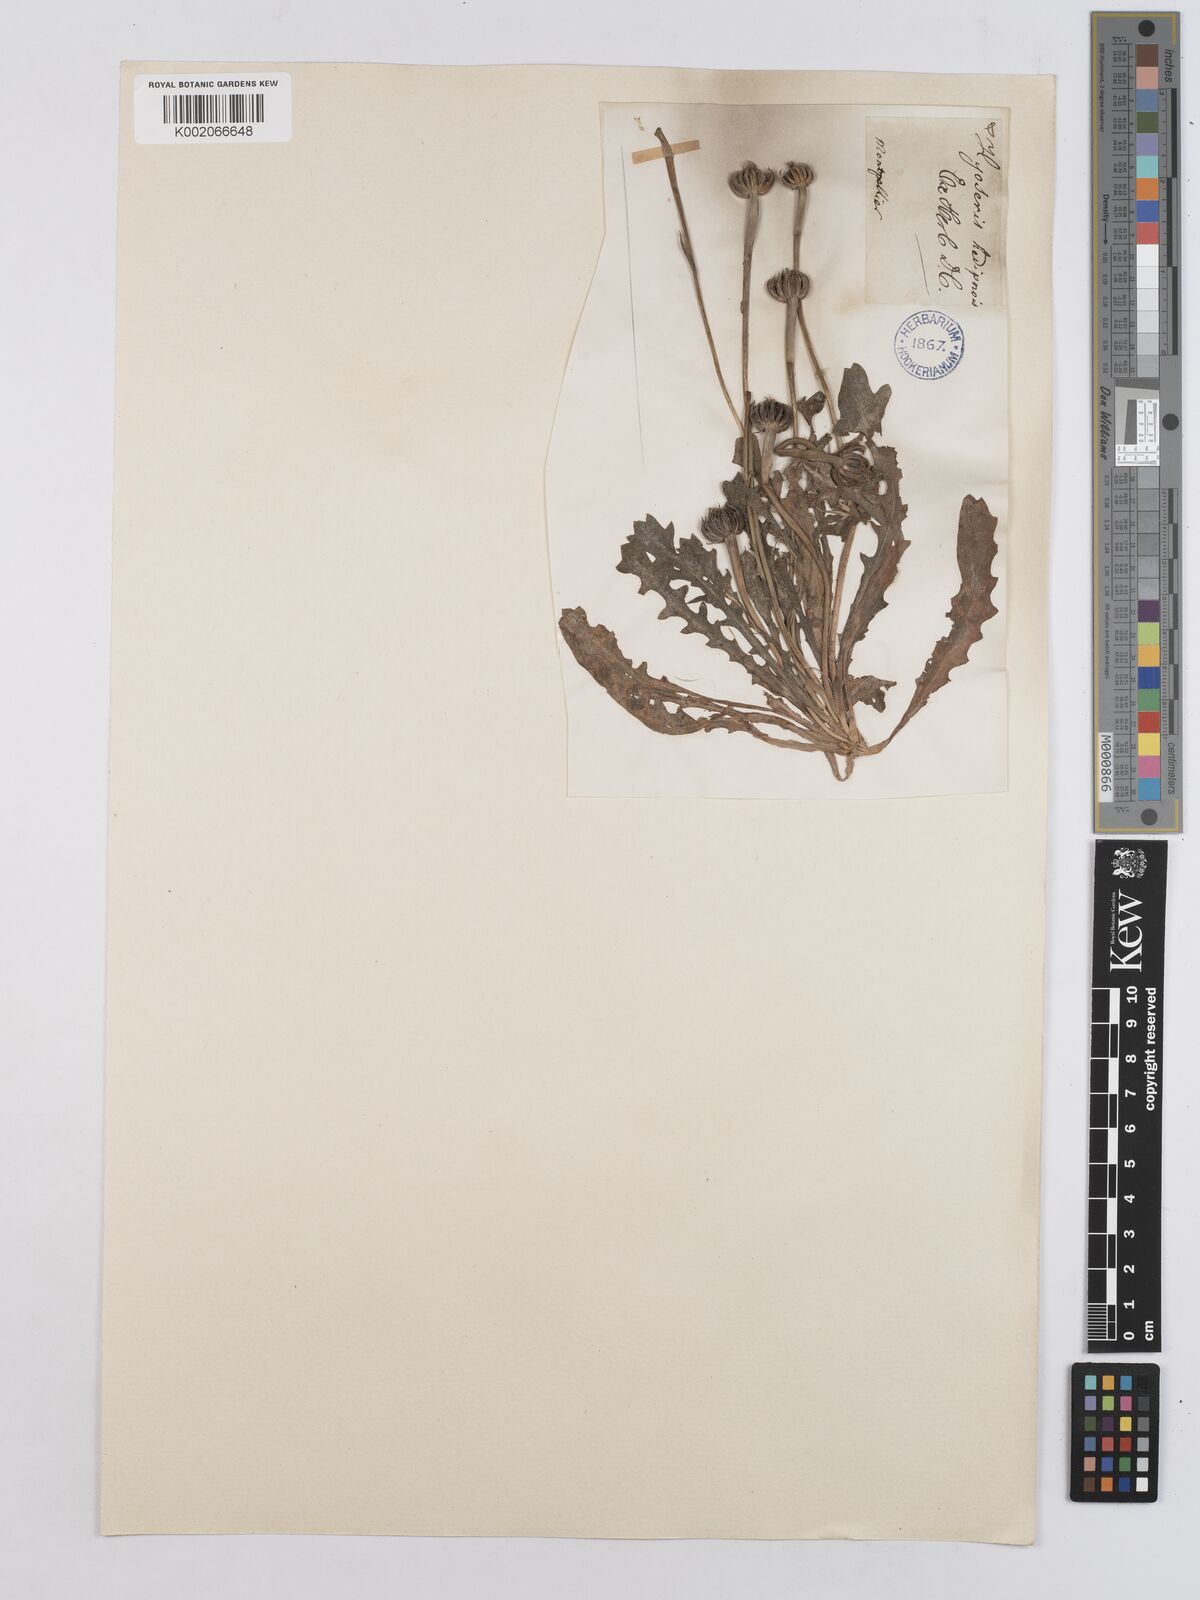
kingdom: Plantae
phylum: Tracheophyta
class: Magnoliopsida
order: Asterales
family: Asteraceae
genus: Hedypnois
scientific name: Hedypnois rhagadioloides
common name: Cretan weed
